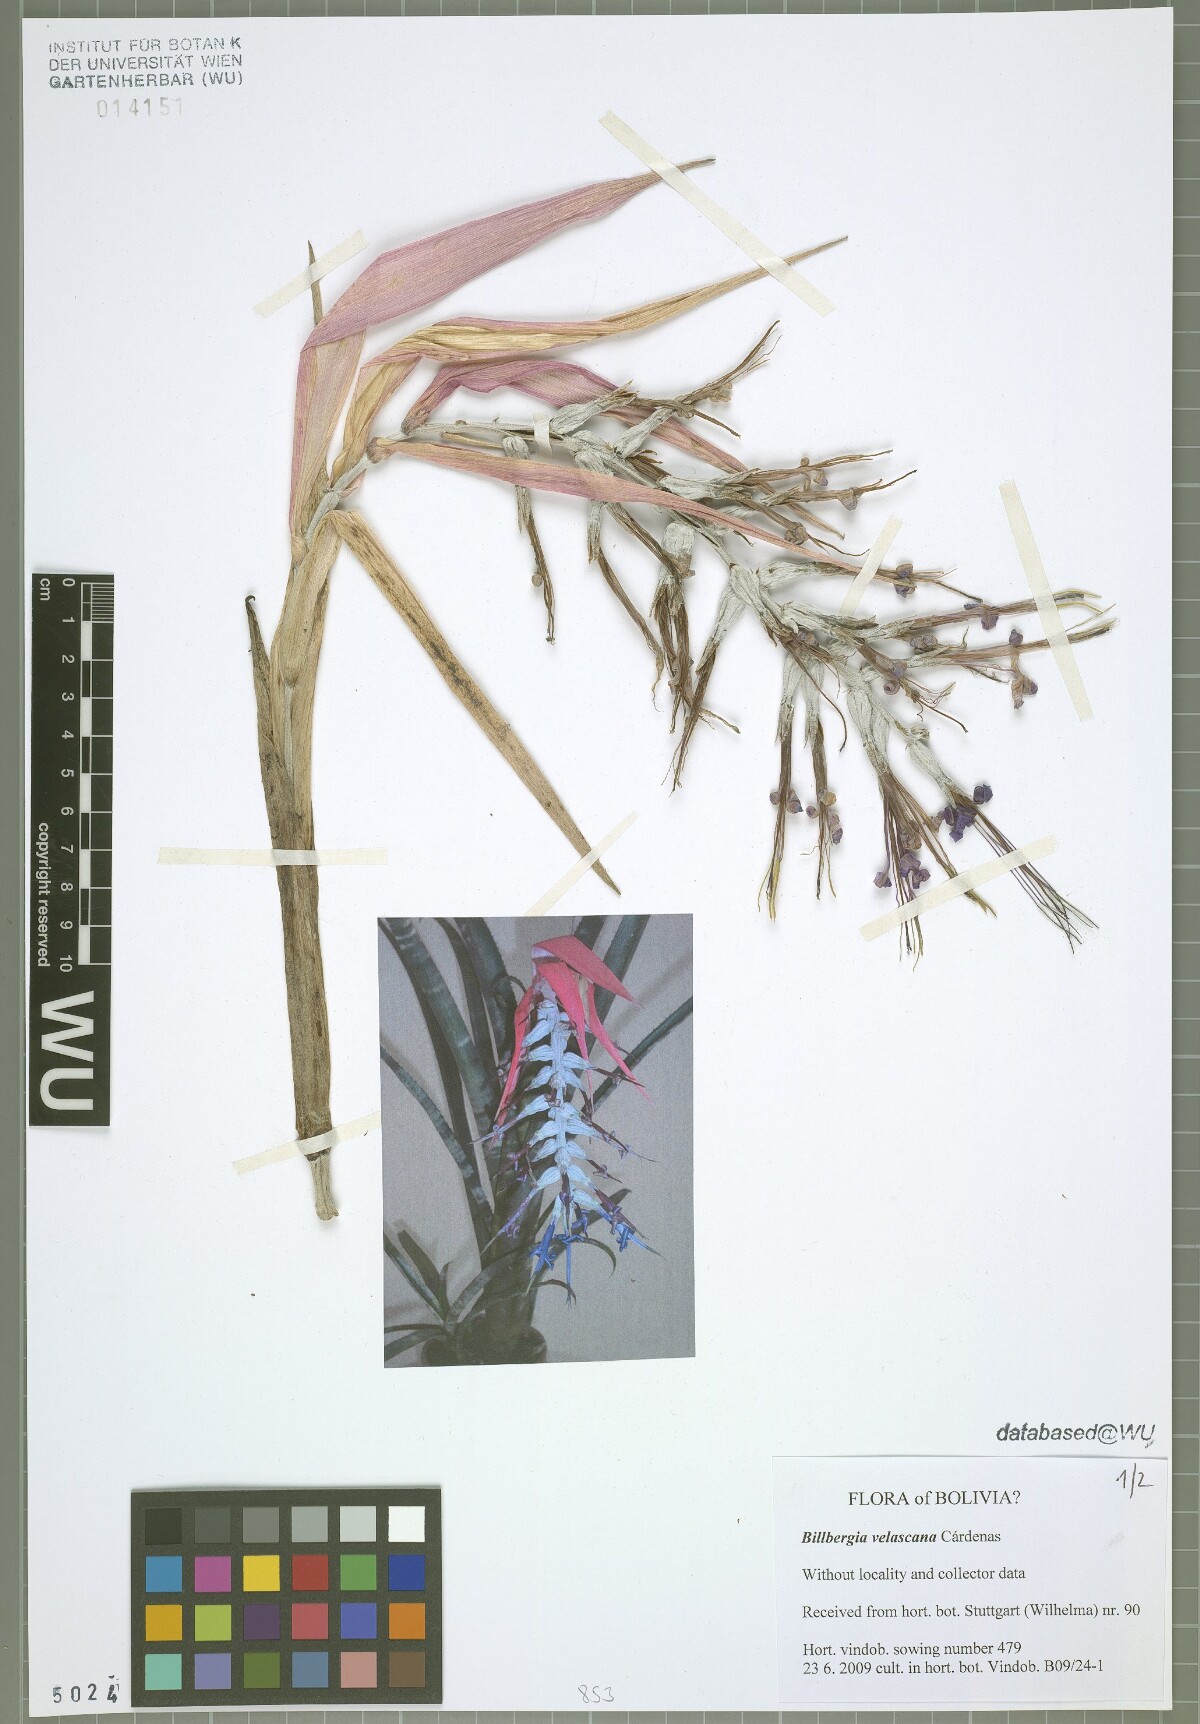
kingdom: Plantae
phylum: Tracheophyta
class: Liliopsida
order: Poales
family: Bromeliaceae
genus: Billbergia
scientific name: Billbergia brasiliensis
